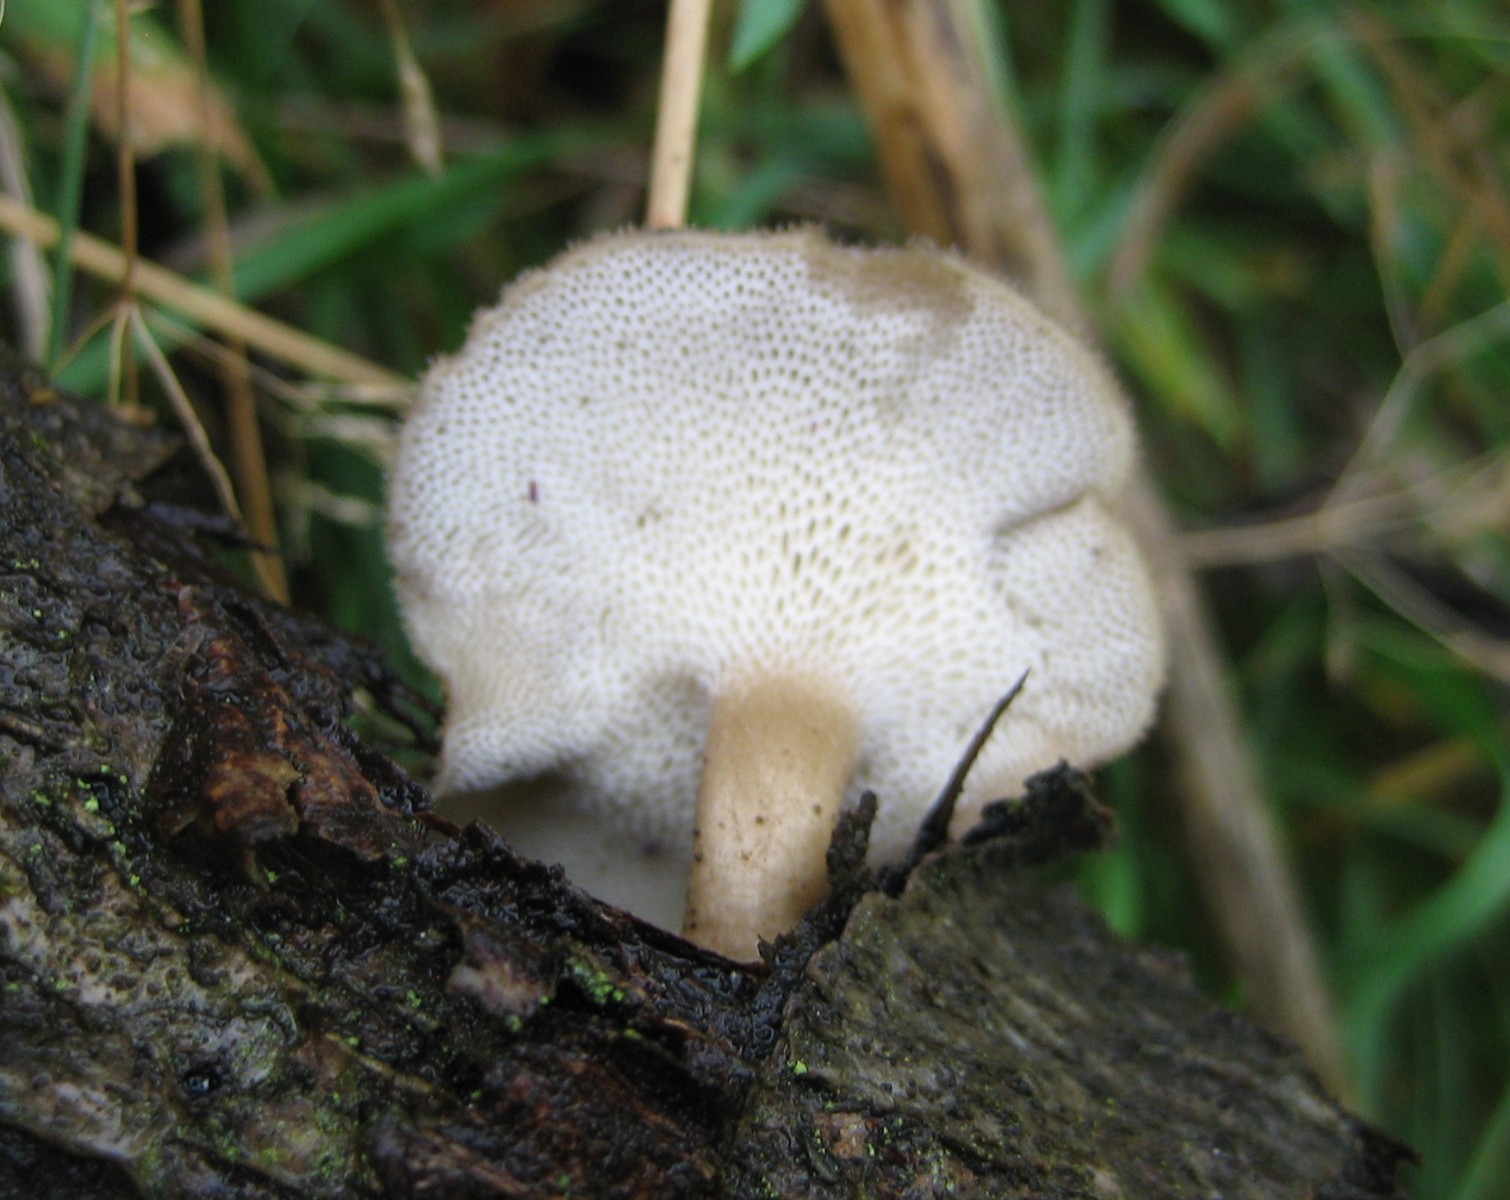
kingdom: Fungi
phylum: Basidiomycota
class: Agaricomycetes
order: Polyporales
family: Polyporaceae
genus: Lentinus
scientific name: Lentinus brumalis
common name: vinter-stilkporesvamp
